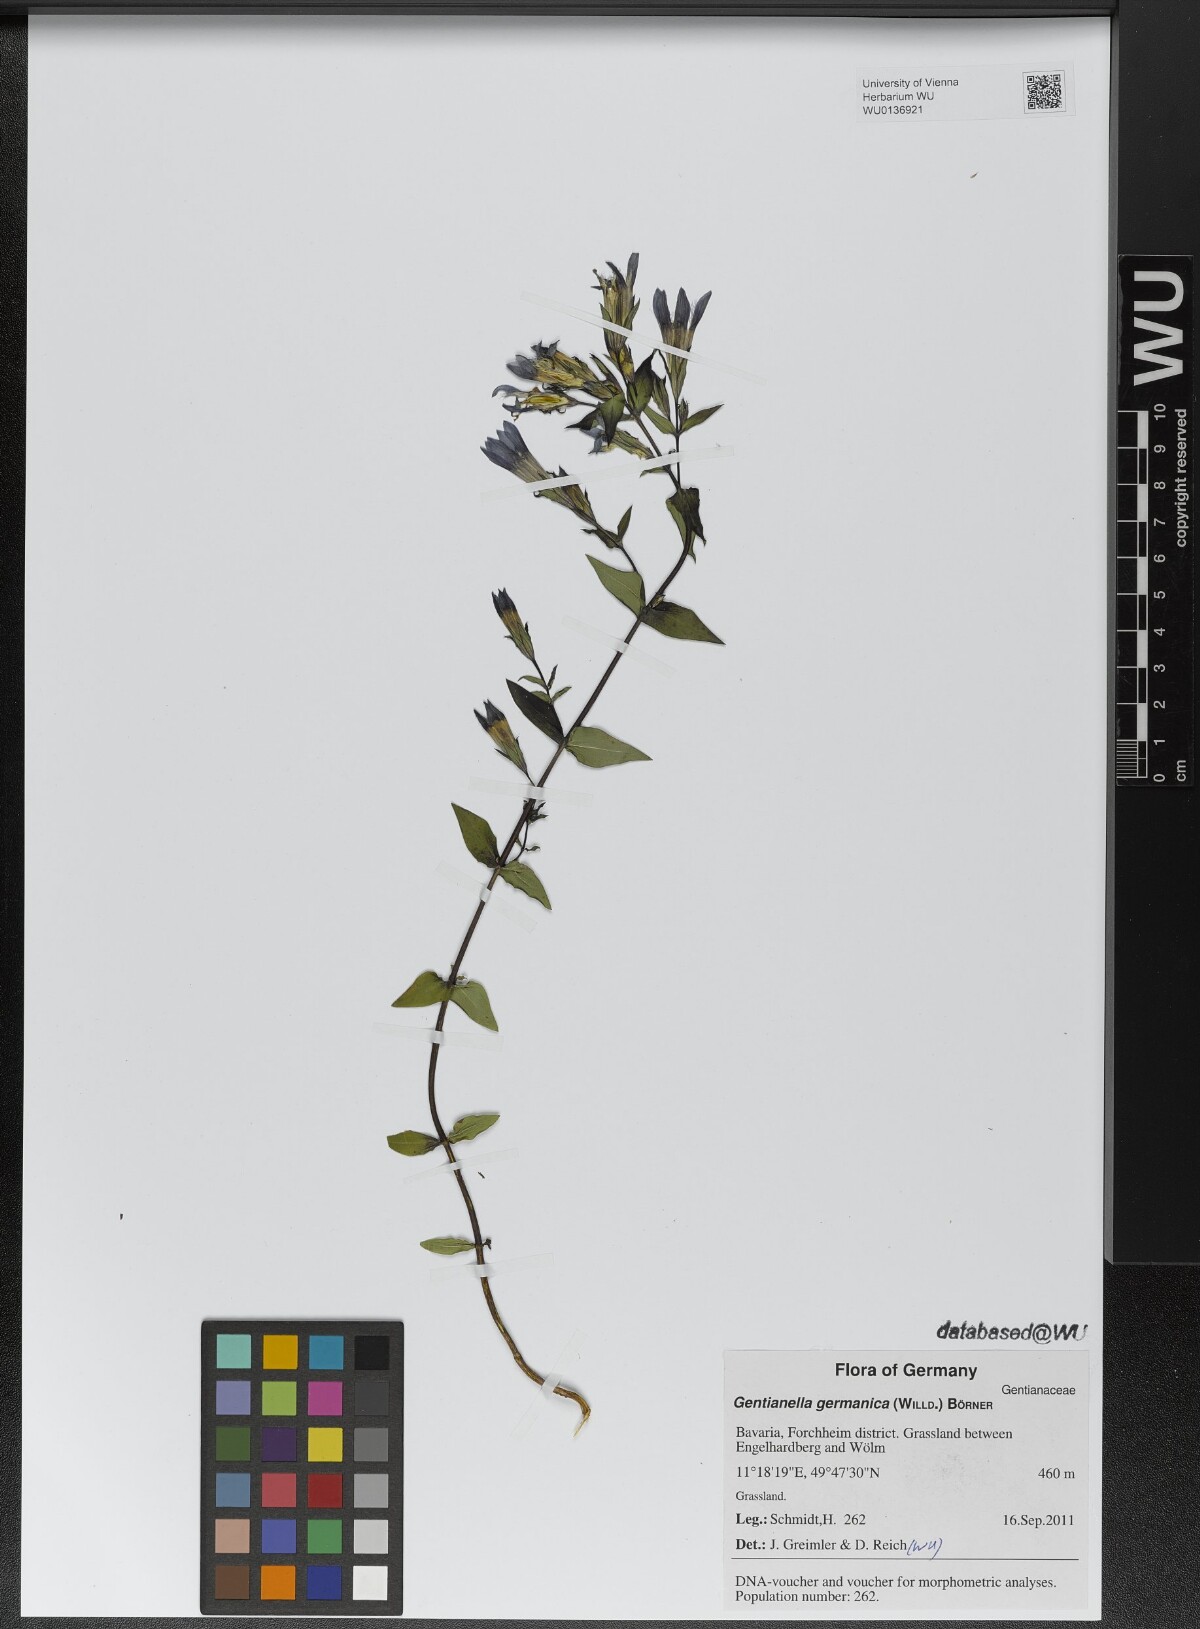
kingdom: Plantae
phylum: Tracheophyta
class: Magnoliopsida
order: Gentianales
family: Gentianaceae
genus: Gentianella
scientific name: Gentianella germanica
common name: Chiltern-gentian
